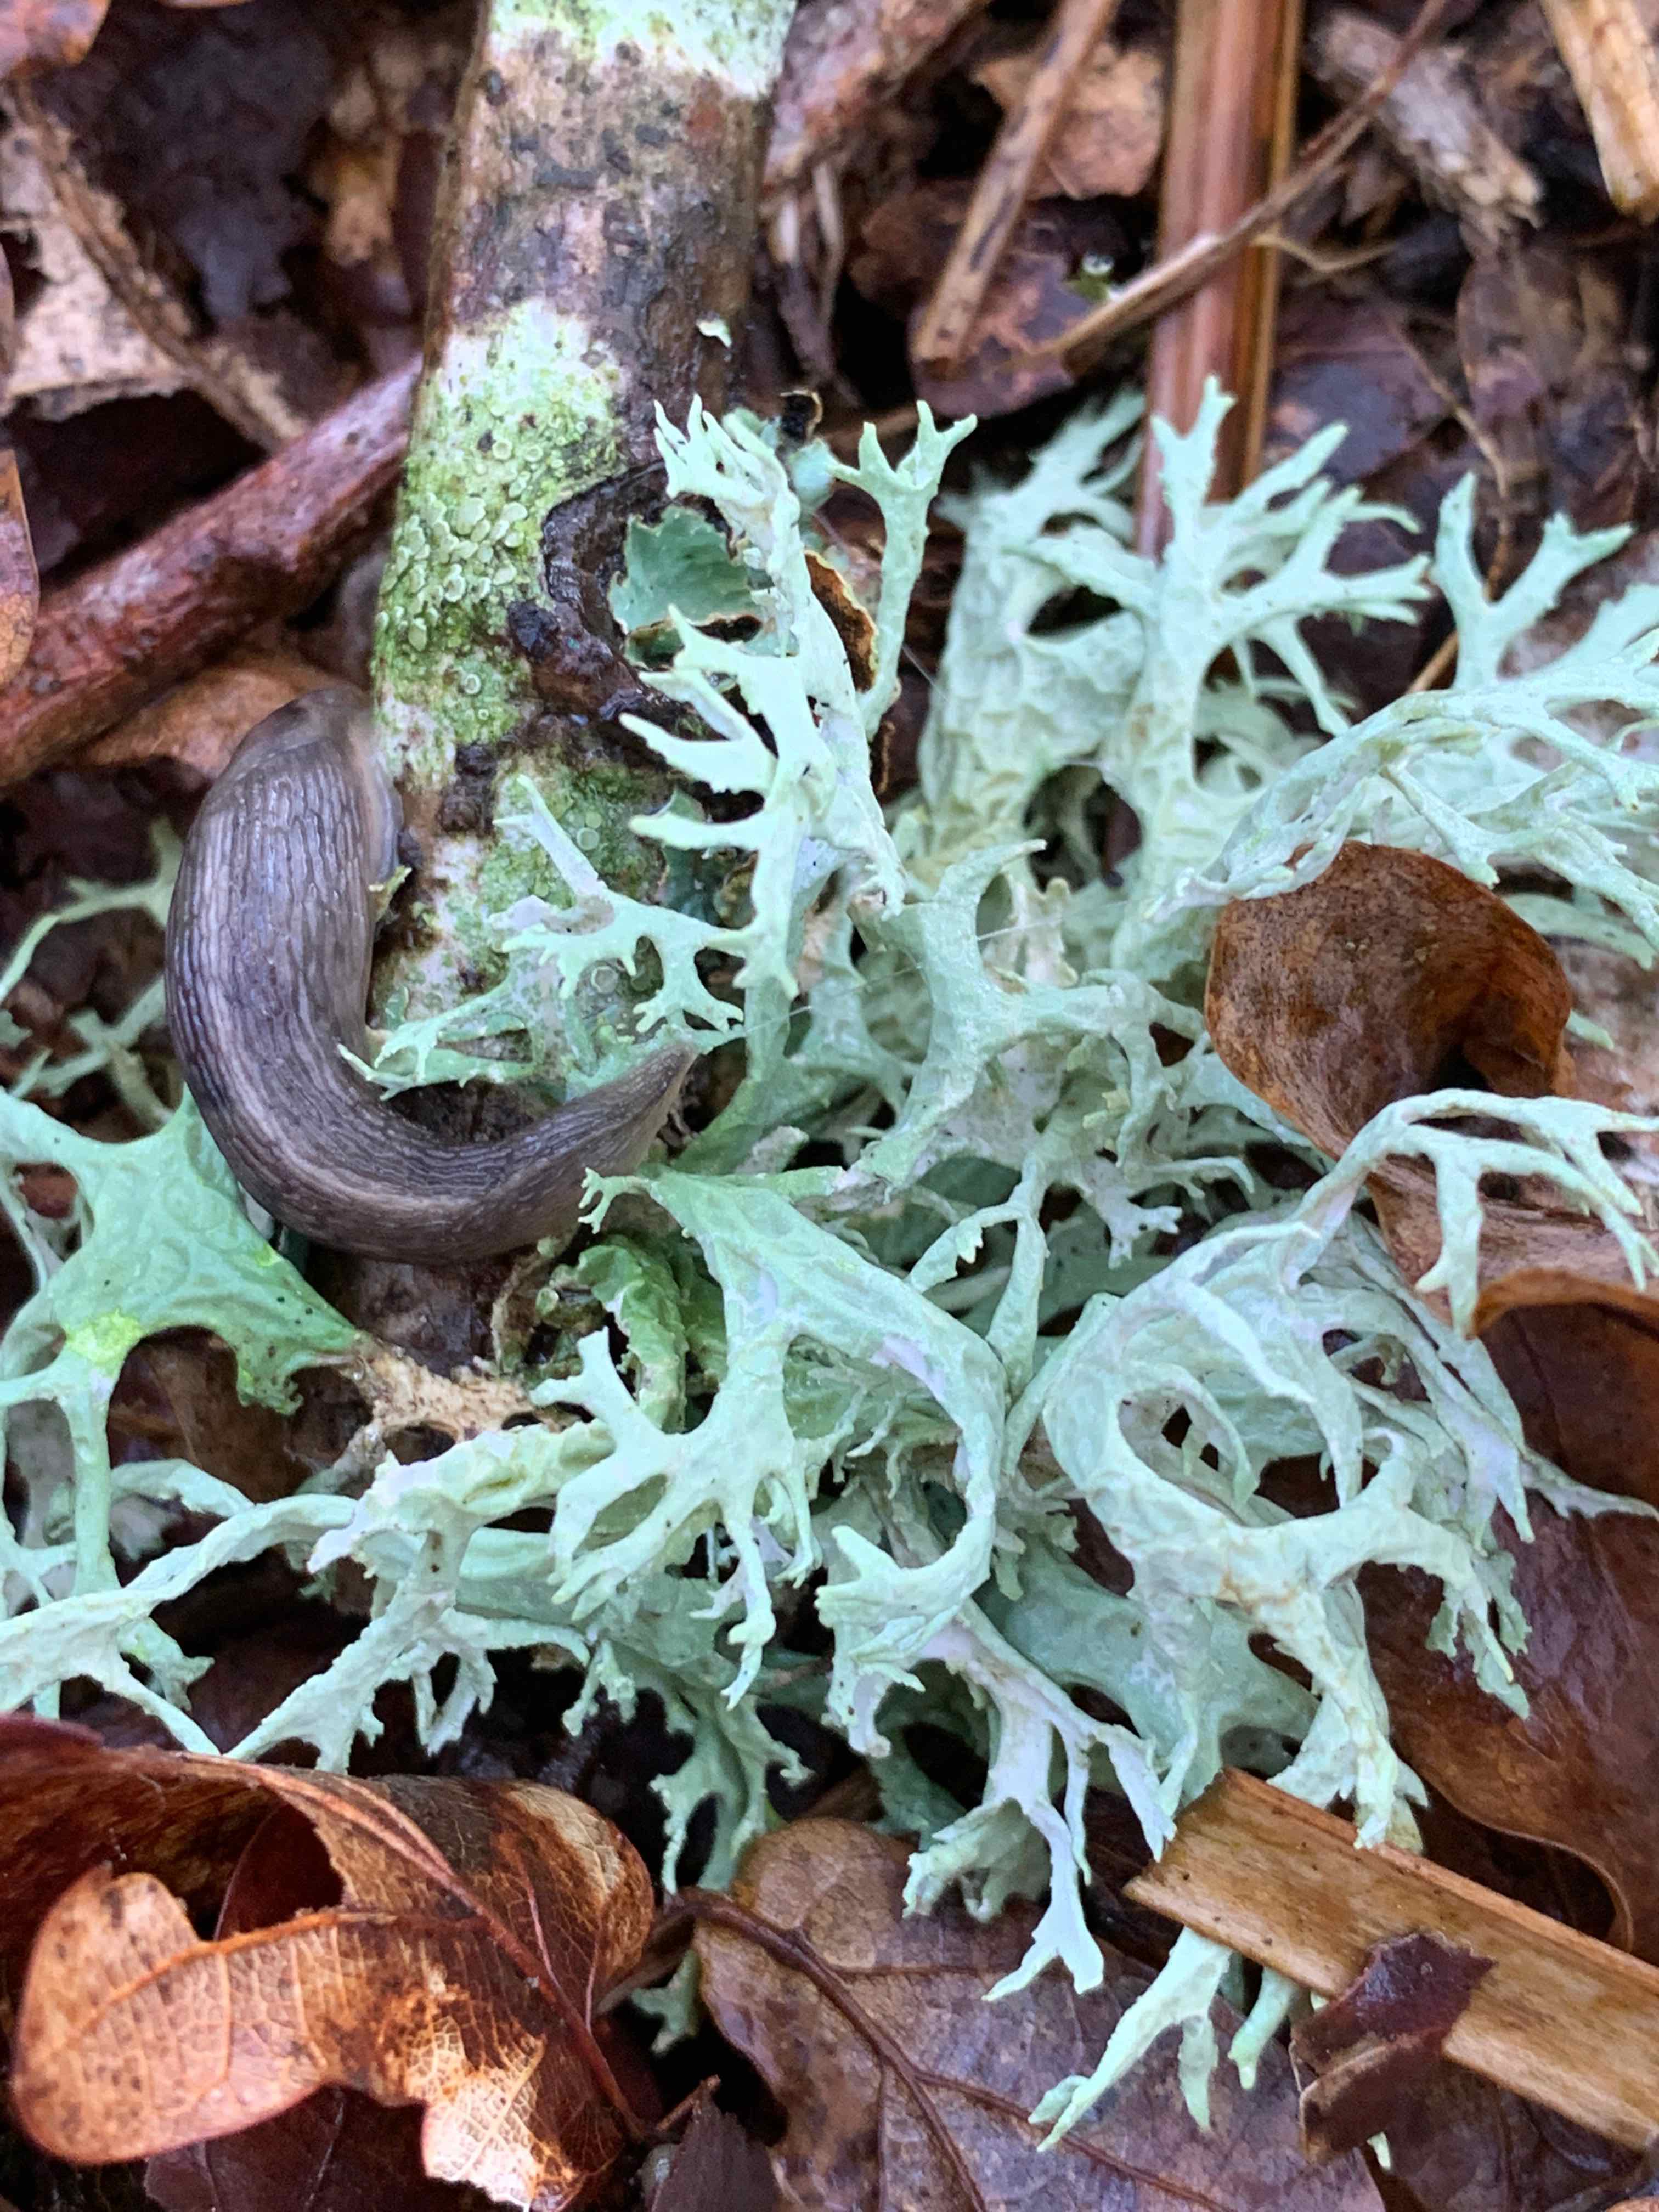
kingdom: Fungi
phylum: Ascomycota
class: Lecanoromycetes
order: Lecanorales
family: Parmeliaceae
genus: Evernia
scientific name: Evernia prunastri
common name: almindelig slåenlav
